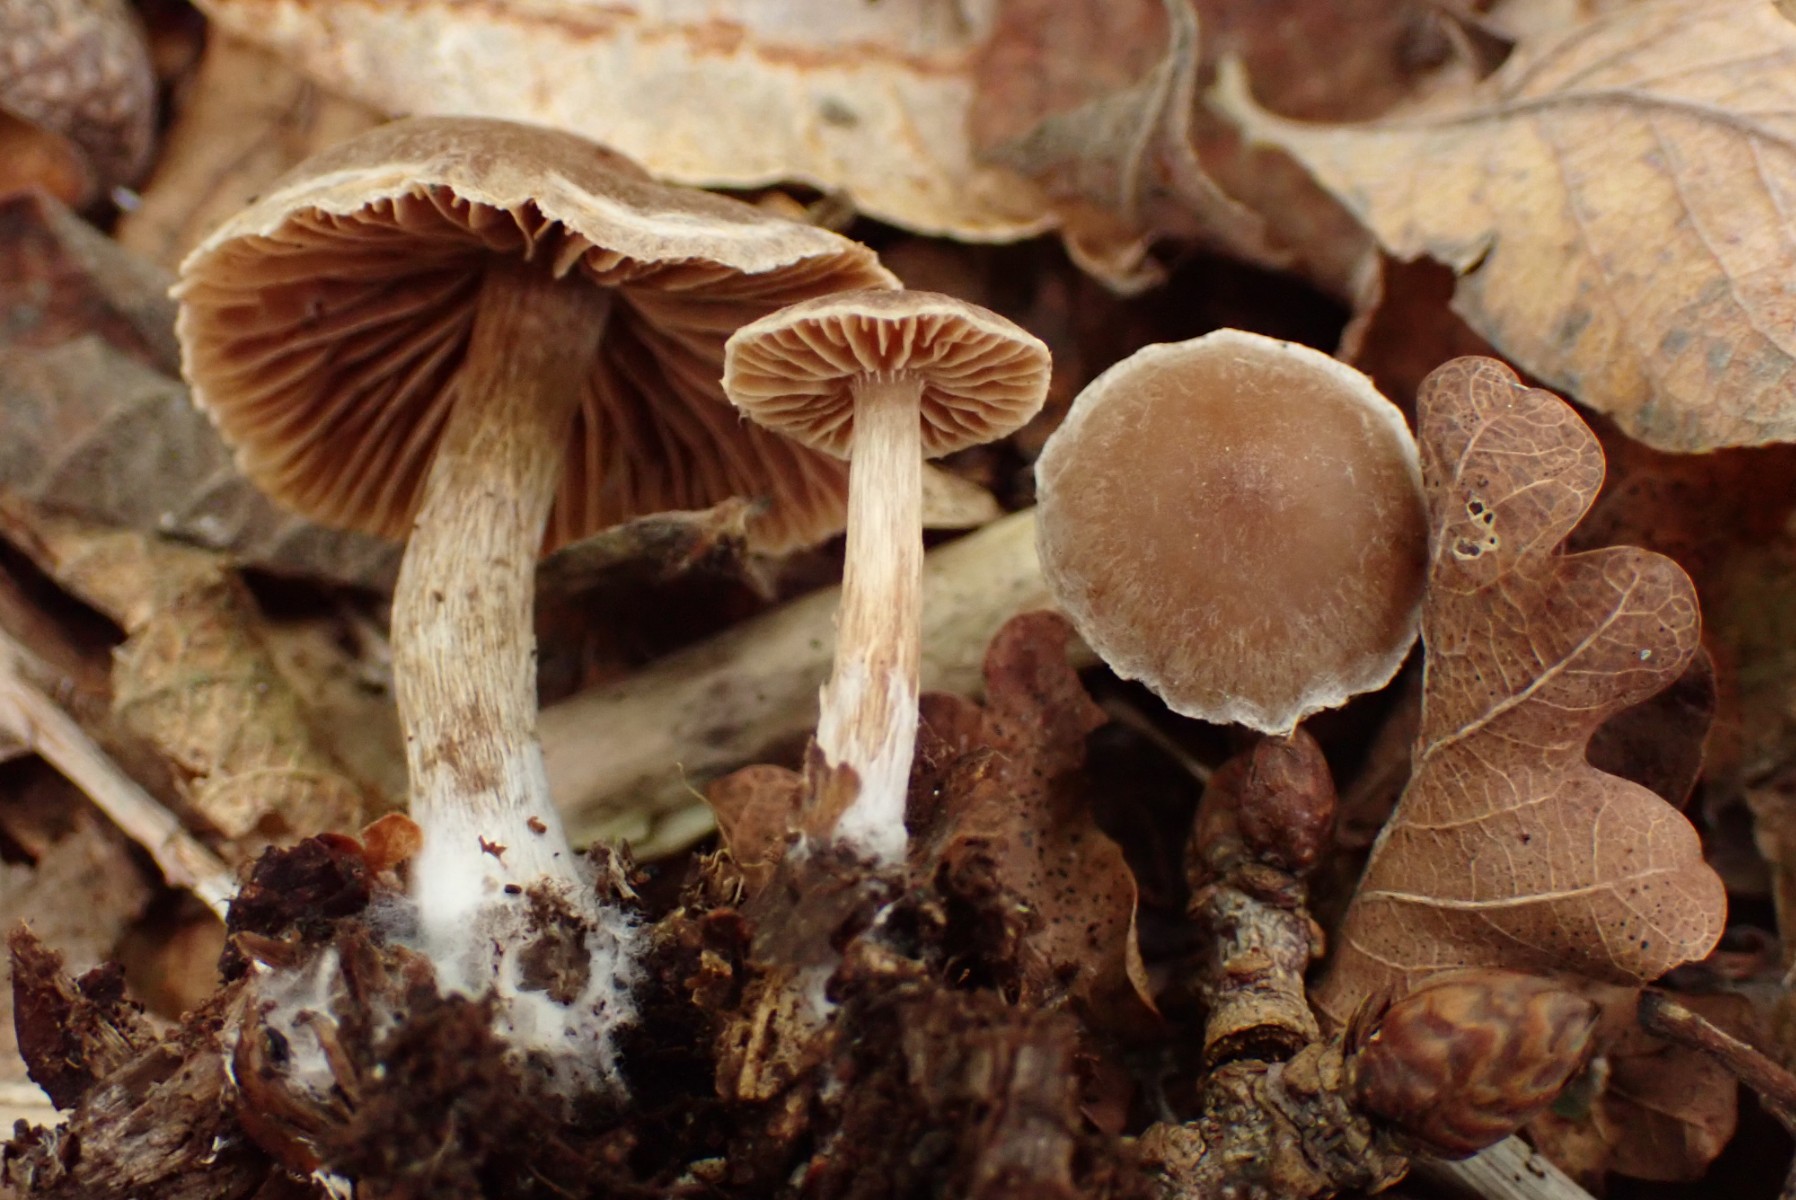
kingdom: Fungi
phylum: Basidiomycota
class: Agaricomycetes
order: Agaricales
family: Cortinariaceae
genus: Cortinarius
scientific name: Cortinarius
